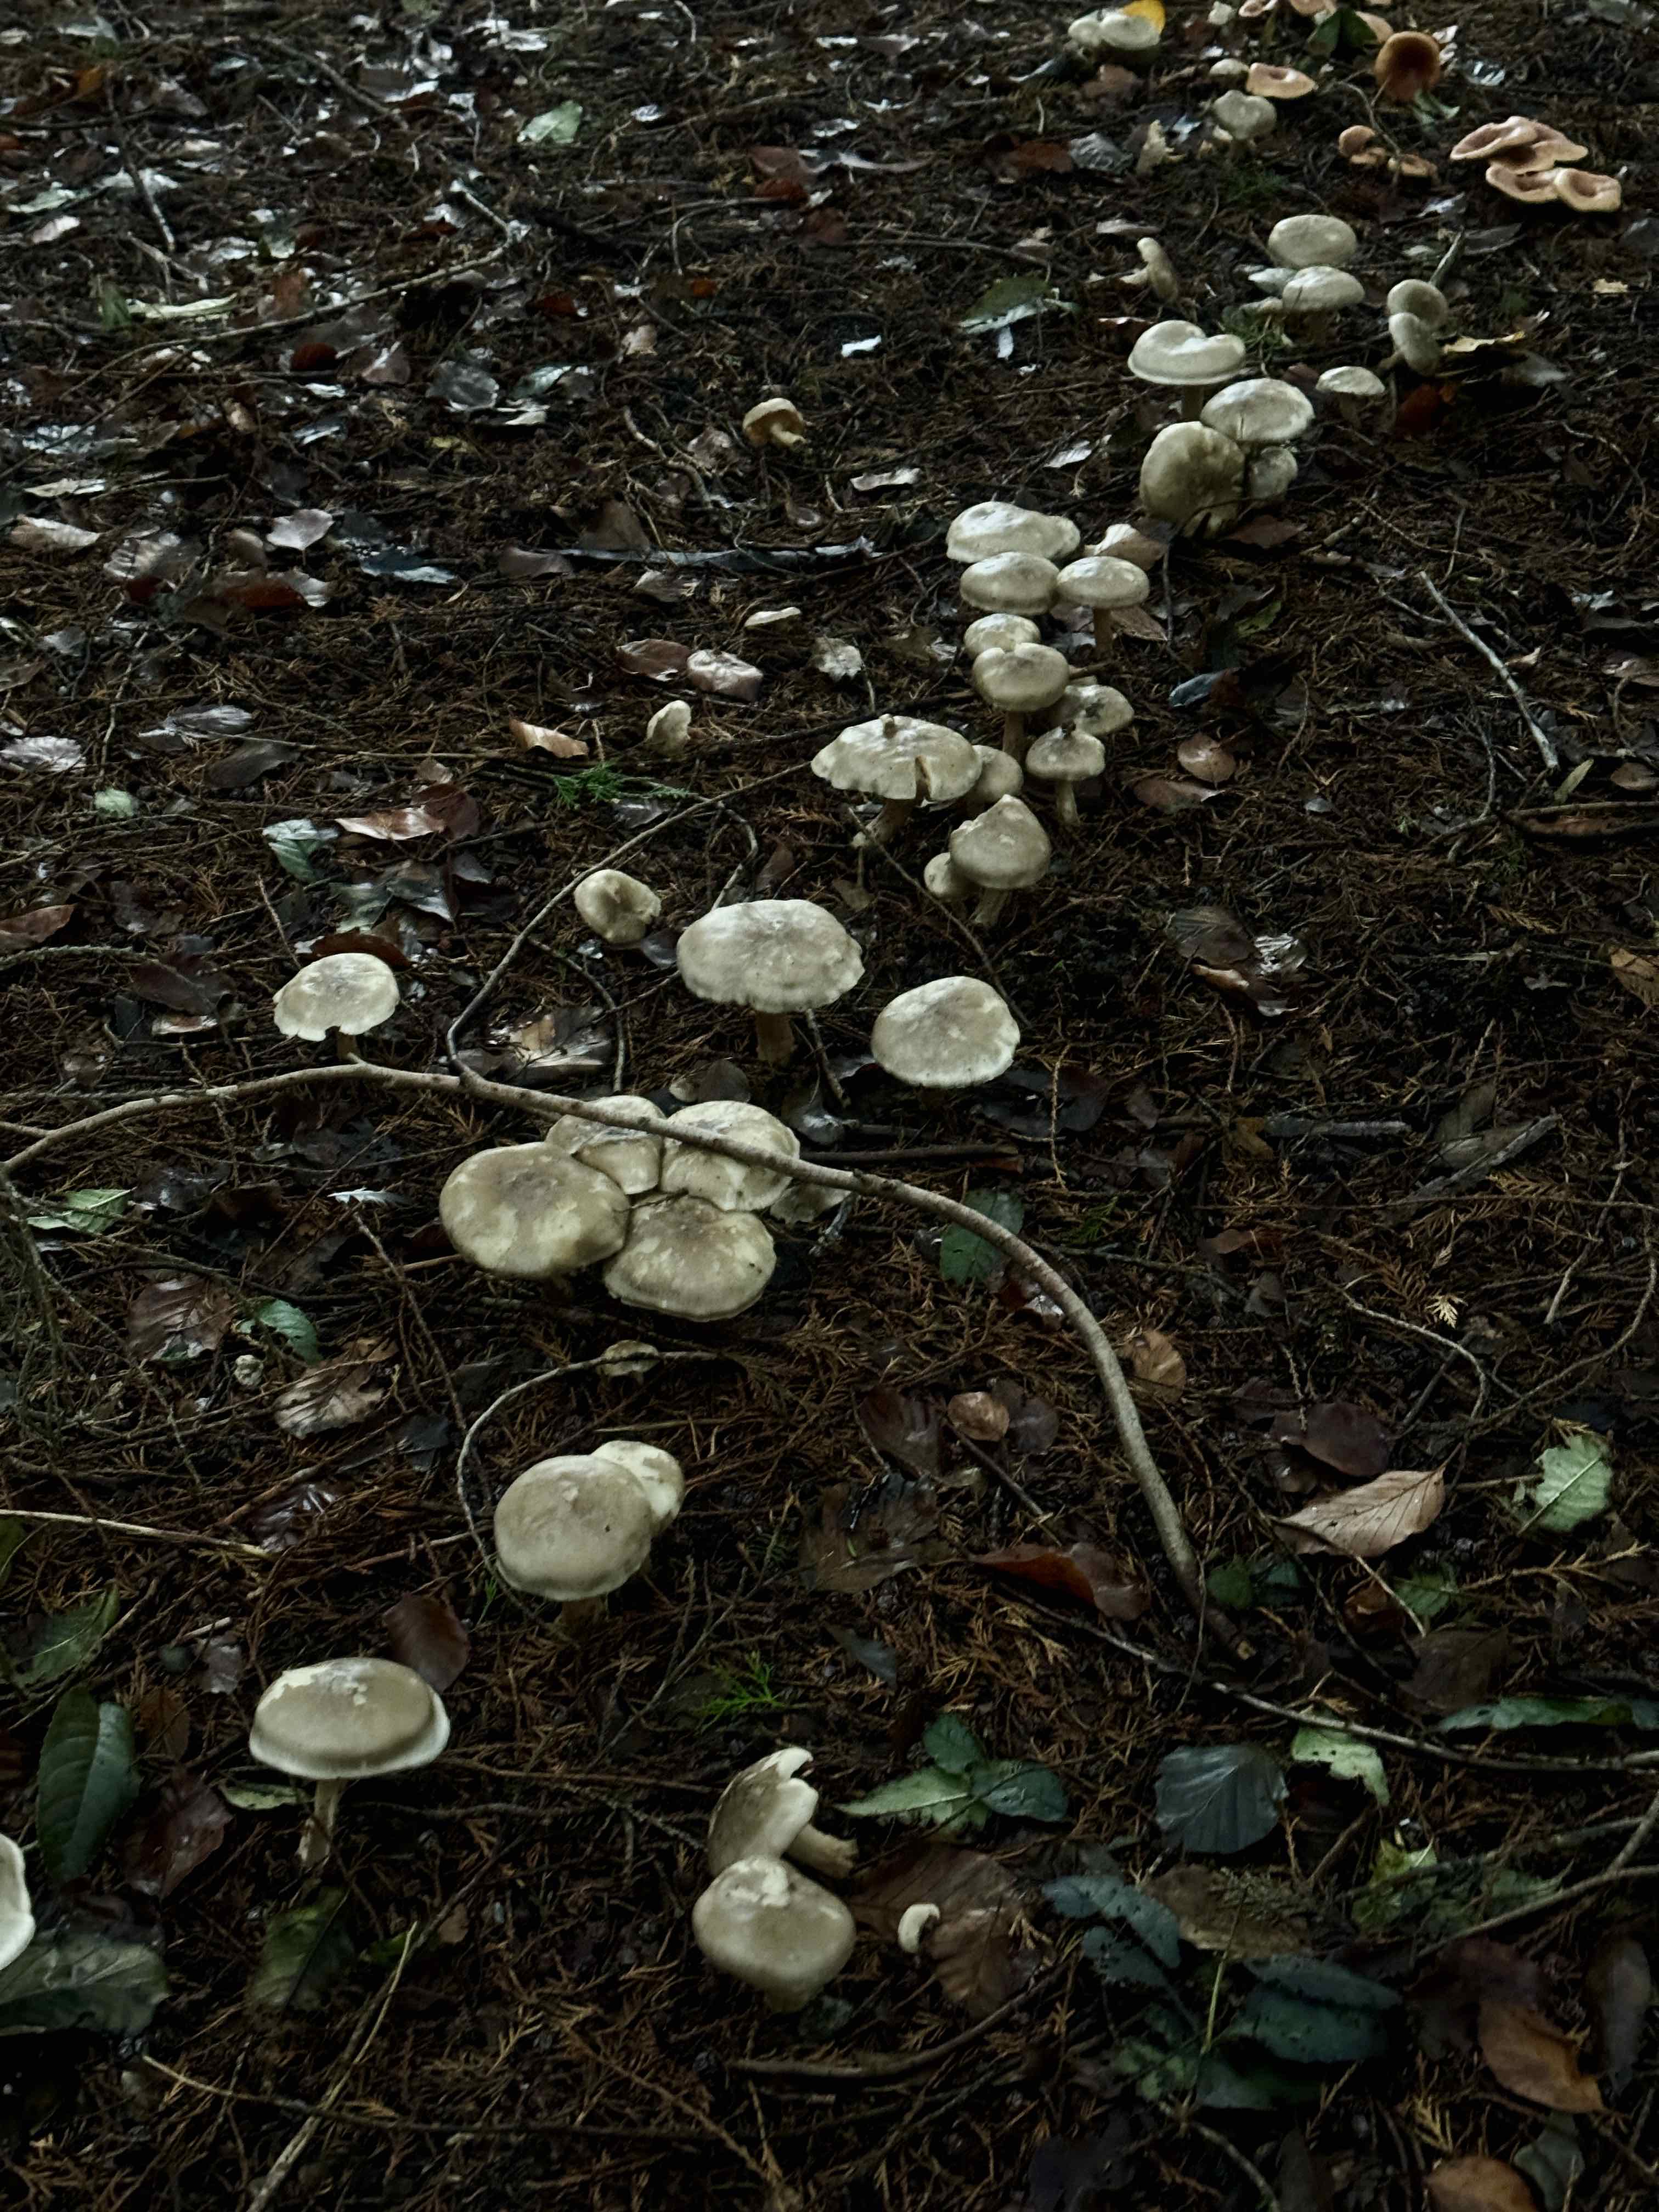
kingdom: Fungi
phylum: Basidiomycota
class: Agaricomycetes
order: Agaricales
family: Tricholomataceae
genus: Clitocybe
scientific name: Clitocybe nebularis
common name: tåge-tragthat
